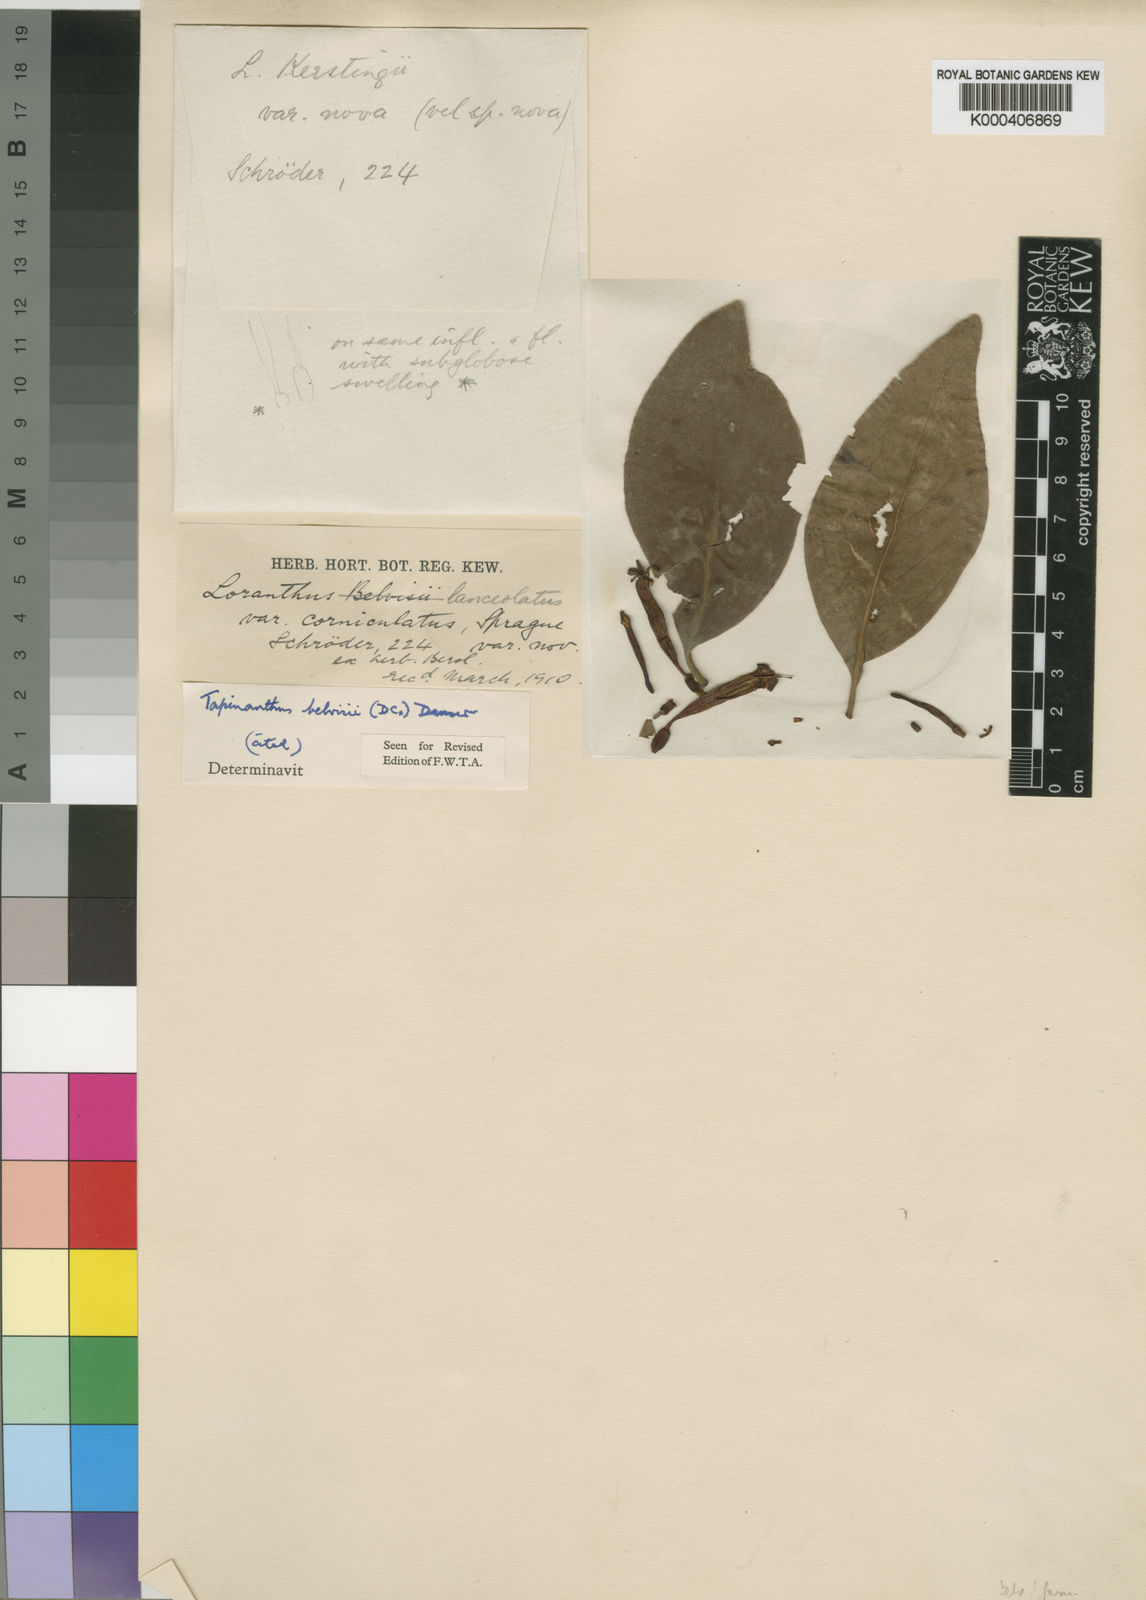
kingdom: Plantae
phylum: Tracheophyta
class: Magnoliopsida
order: Santalales
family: Loranthaceae
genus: Tapinanthus
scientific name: Tapinanthus
